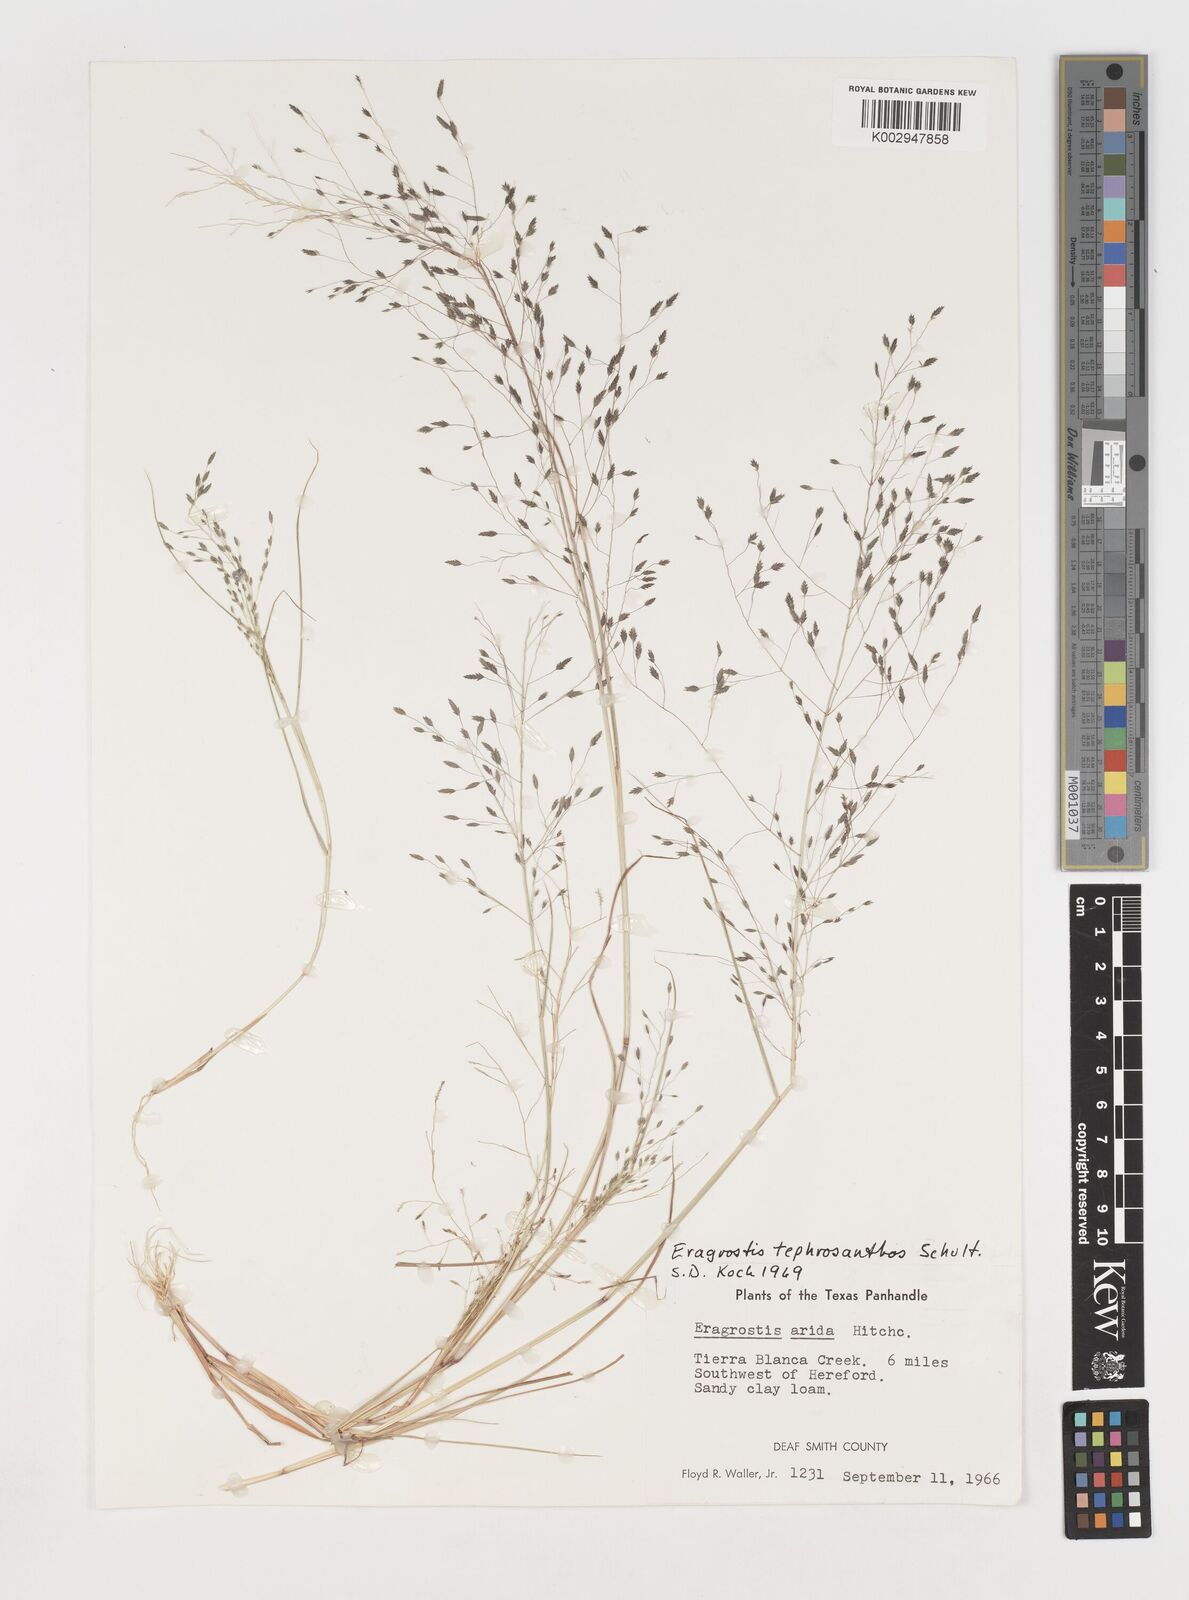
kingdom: Plantae
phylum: Tracheophyta
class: Liliopsida
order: Poales
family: Poaceae
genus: Eragrostis
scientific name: Eragrostis pectinacea
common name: Tufted lovegrass
